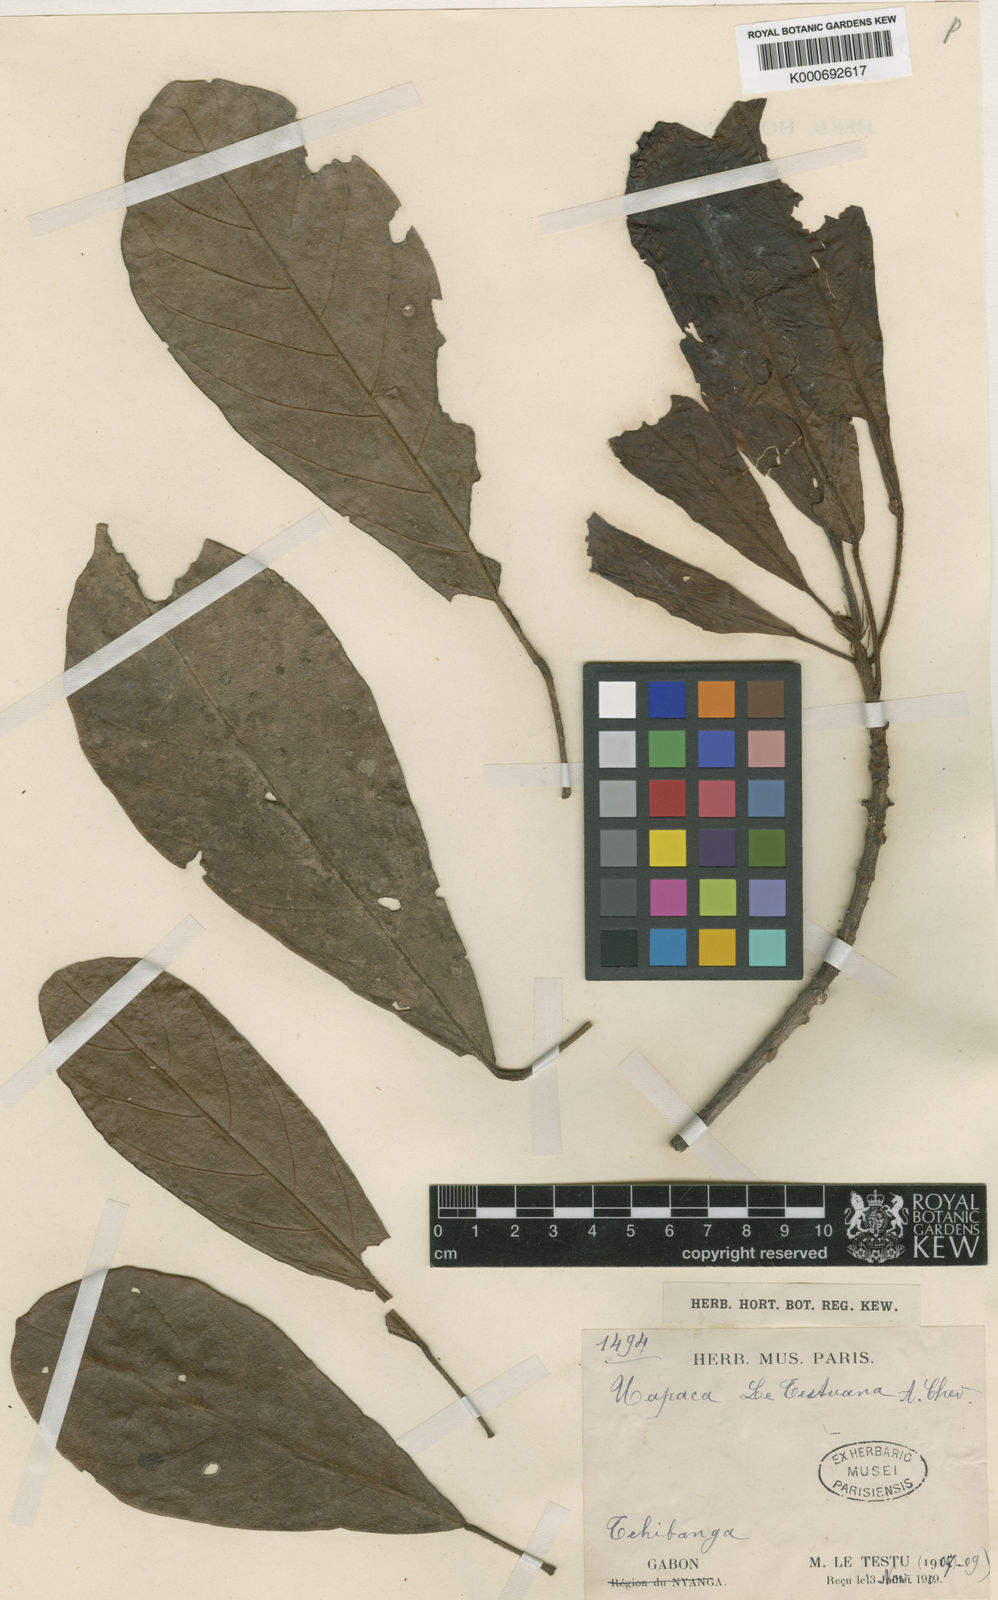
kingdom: Plantae
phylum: Tracheophyta
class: Magnoliopsida
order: Malpighiales
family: Phyllanthaceae
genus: Uapaca
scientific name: Uapaca vanhouttei
